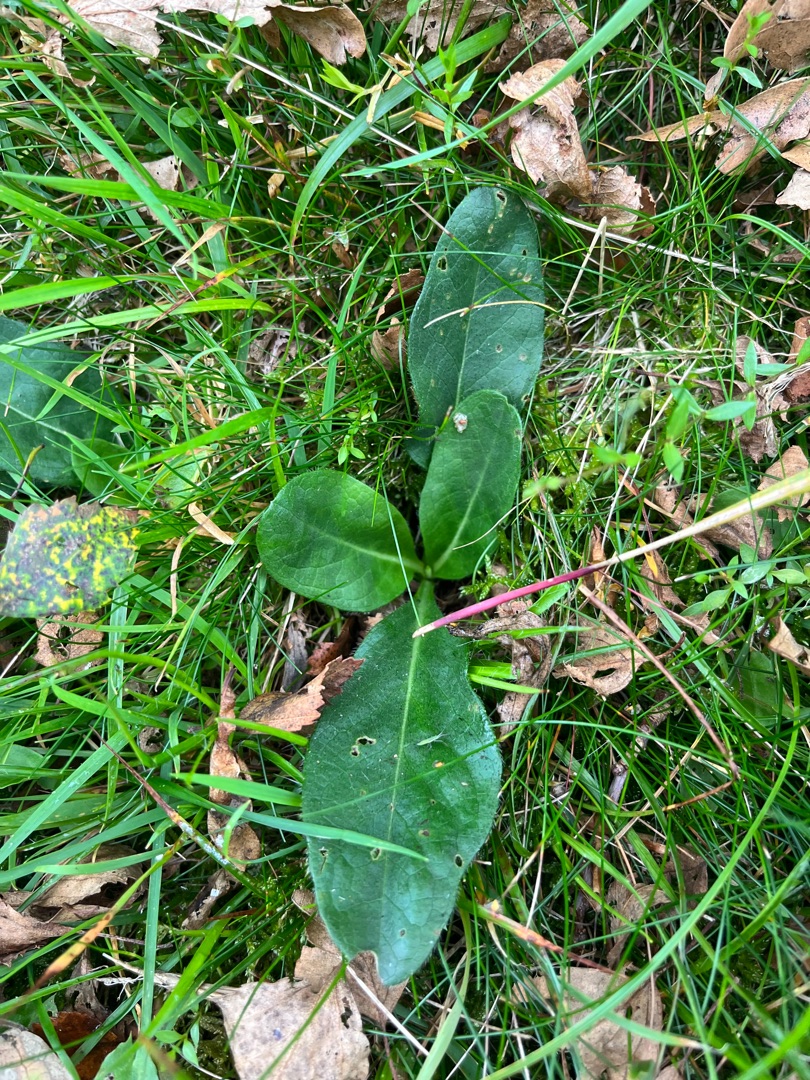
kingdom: Plantae
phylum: Tracheophyta
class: Magnoliopsida
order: Dipsacales
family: Caprifoliaceae
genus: Succisa
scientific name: Succisa pratensis
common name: Djævelsbid
